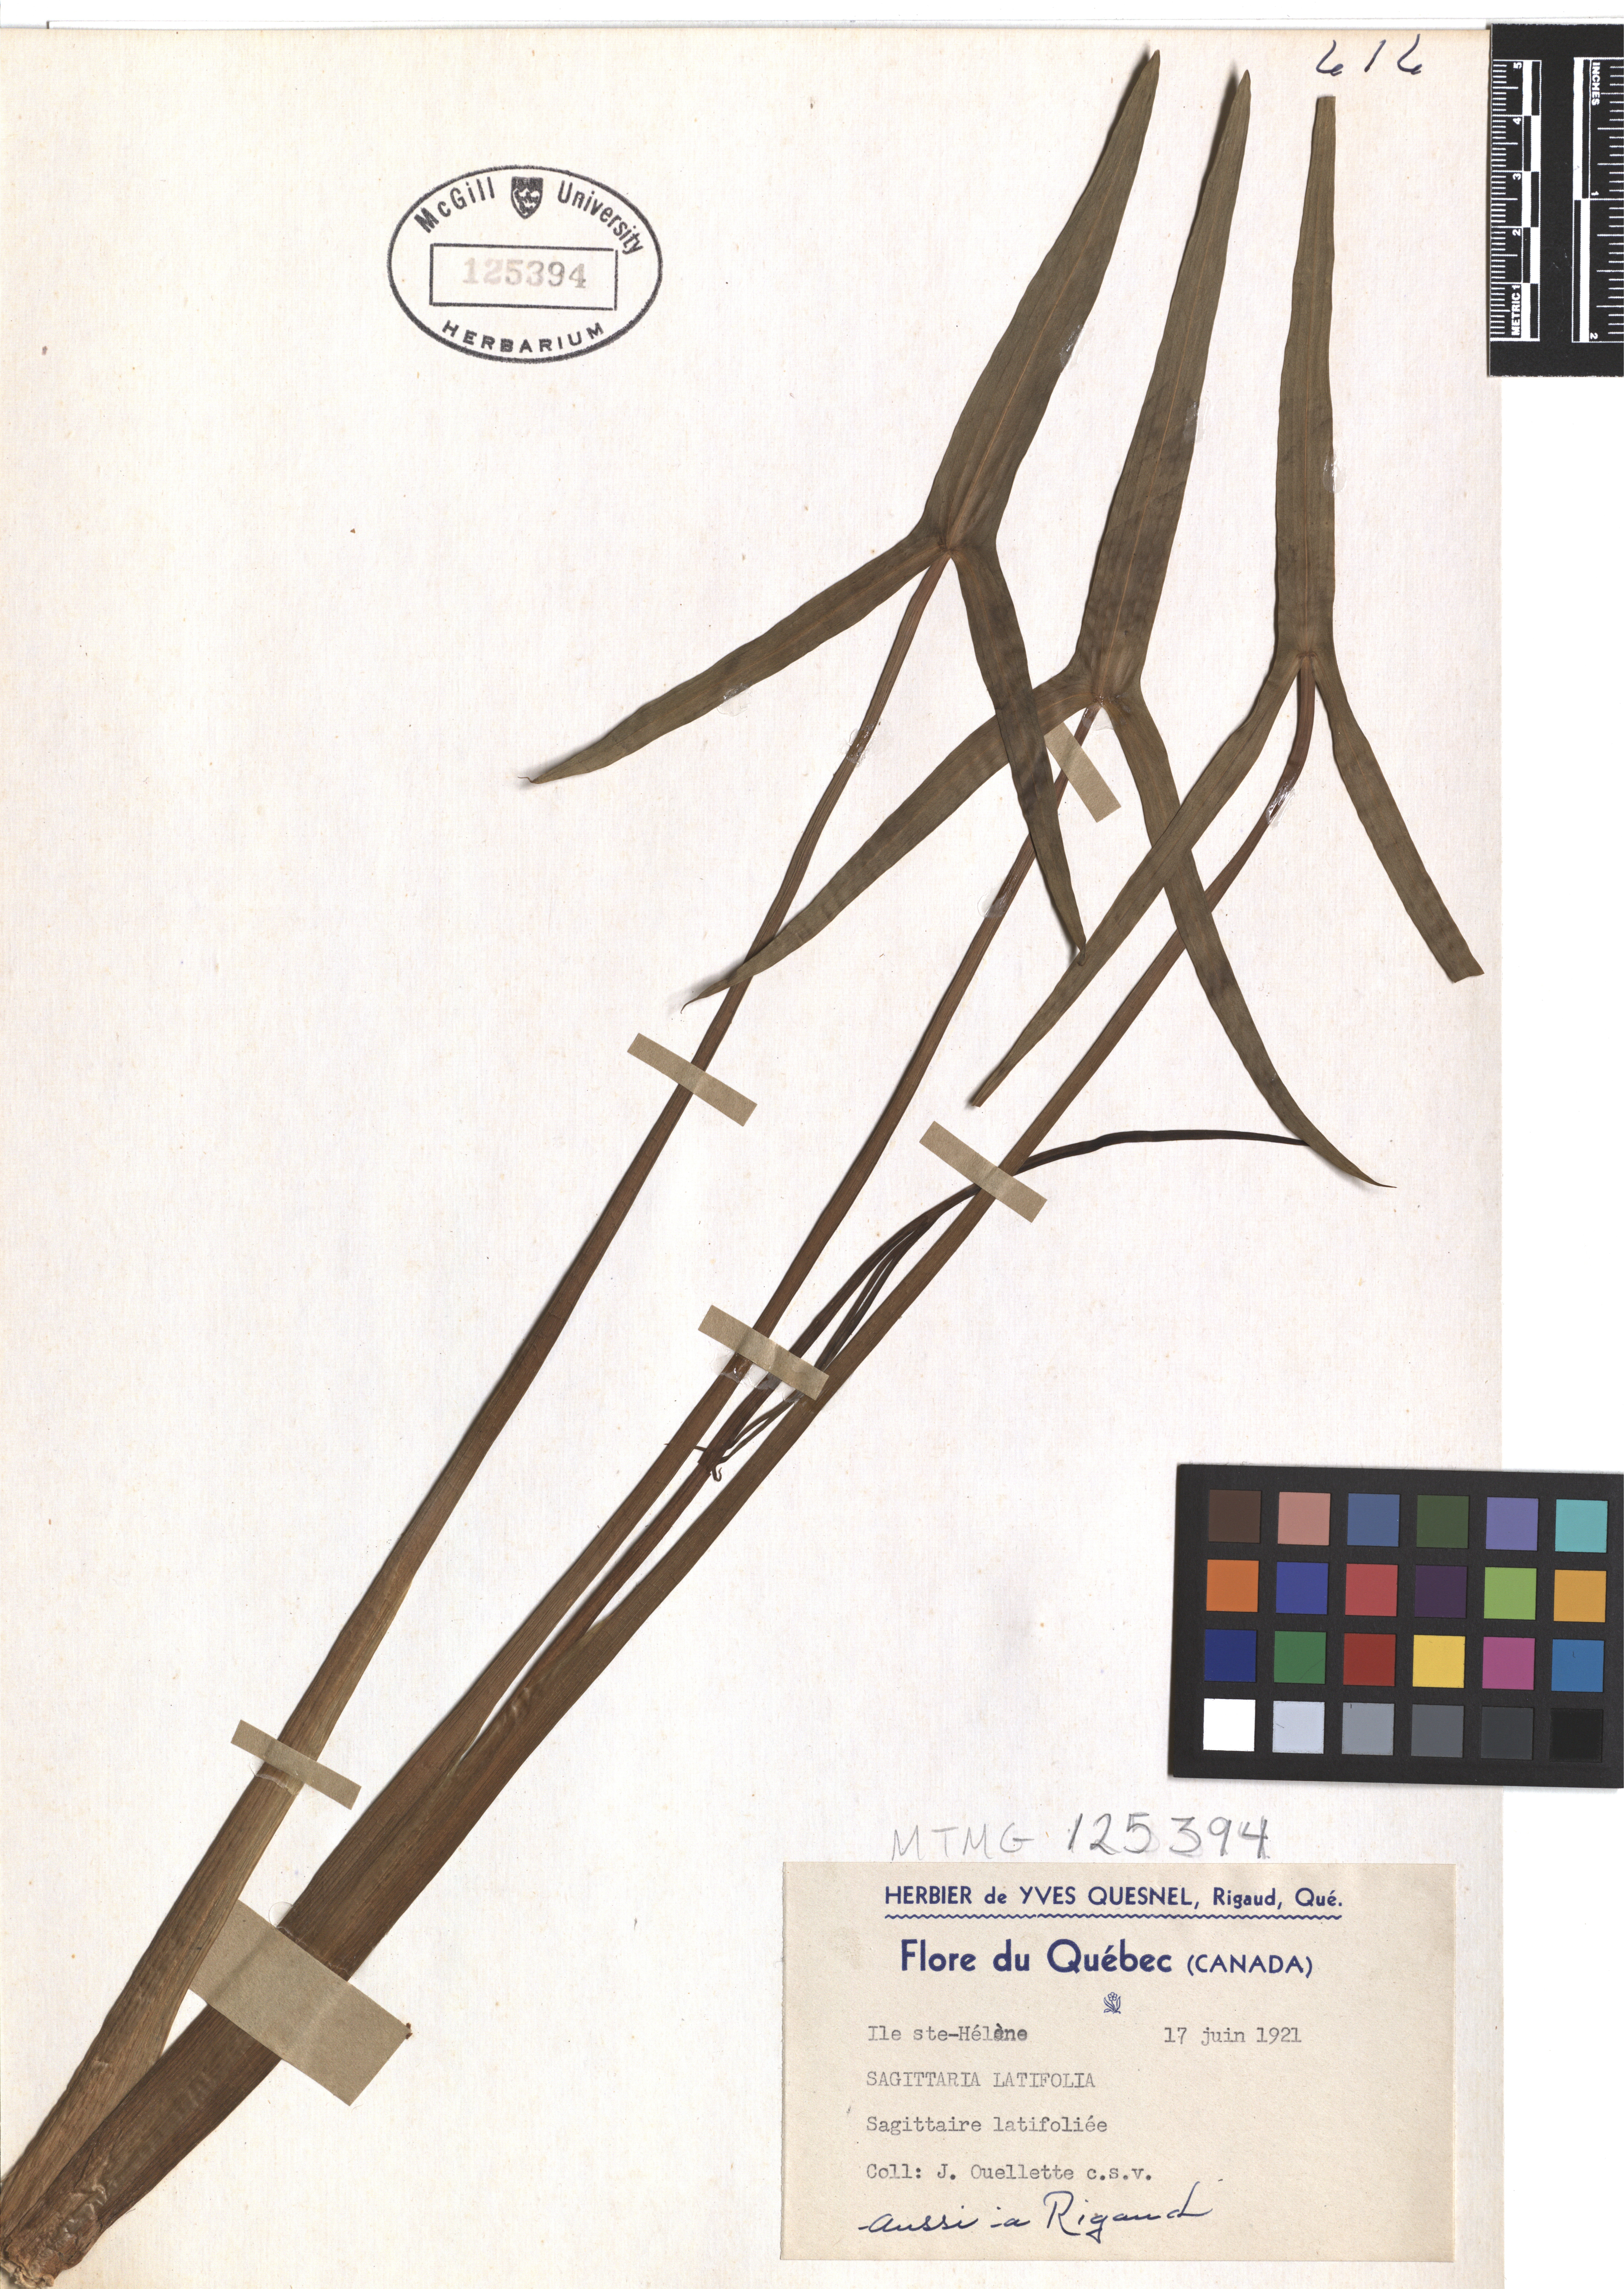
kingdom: Plantae
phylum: Tracheophyta
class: Liliopsida
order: Alismatales
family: Alismataceae
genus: Sagittaria
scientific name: Sagittaria latifolia
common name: Duck-potato
